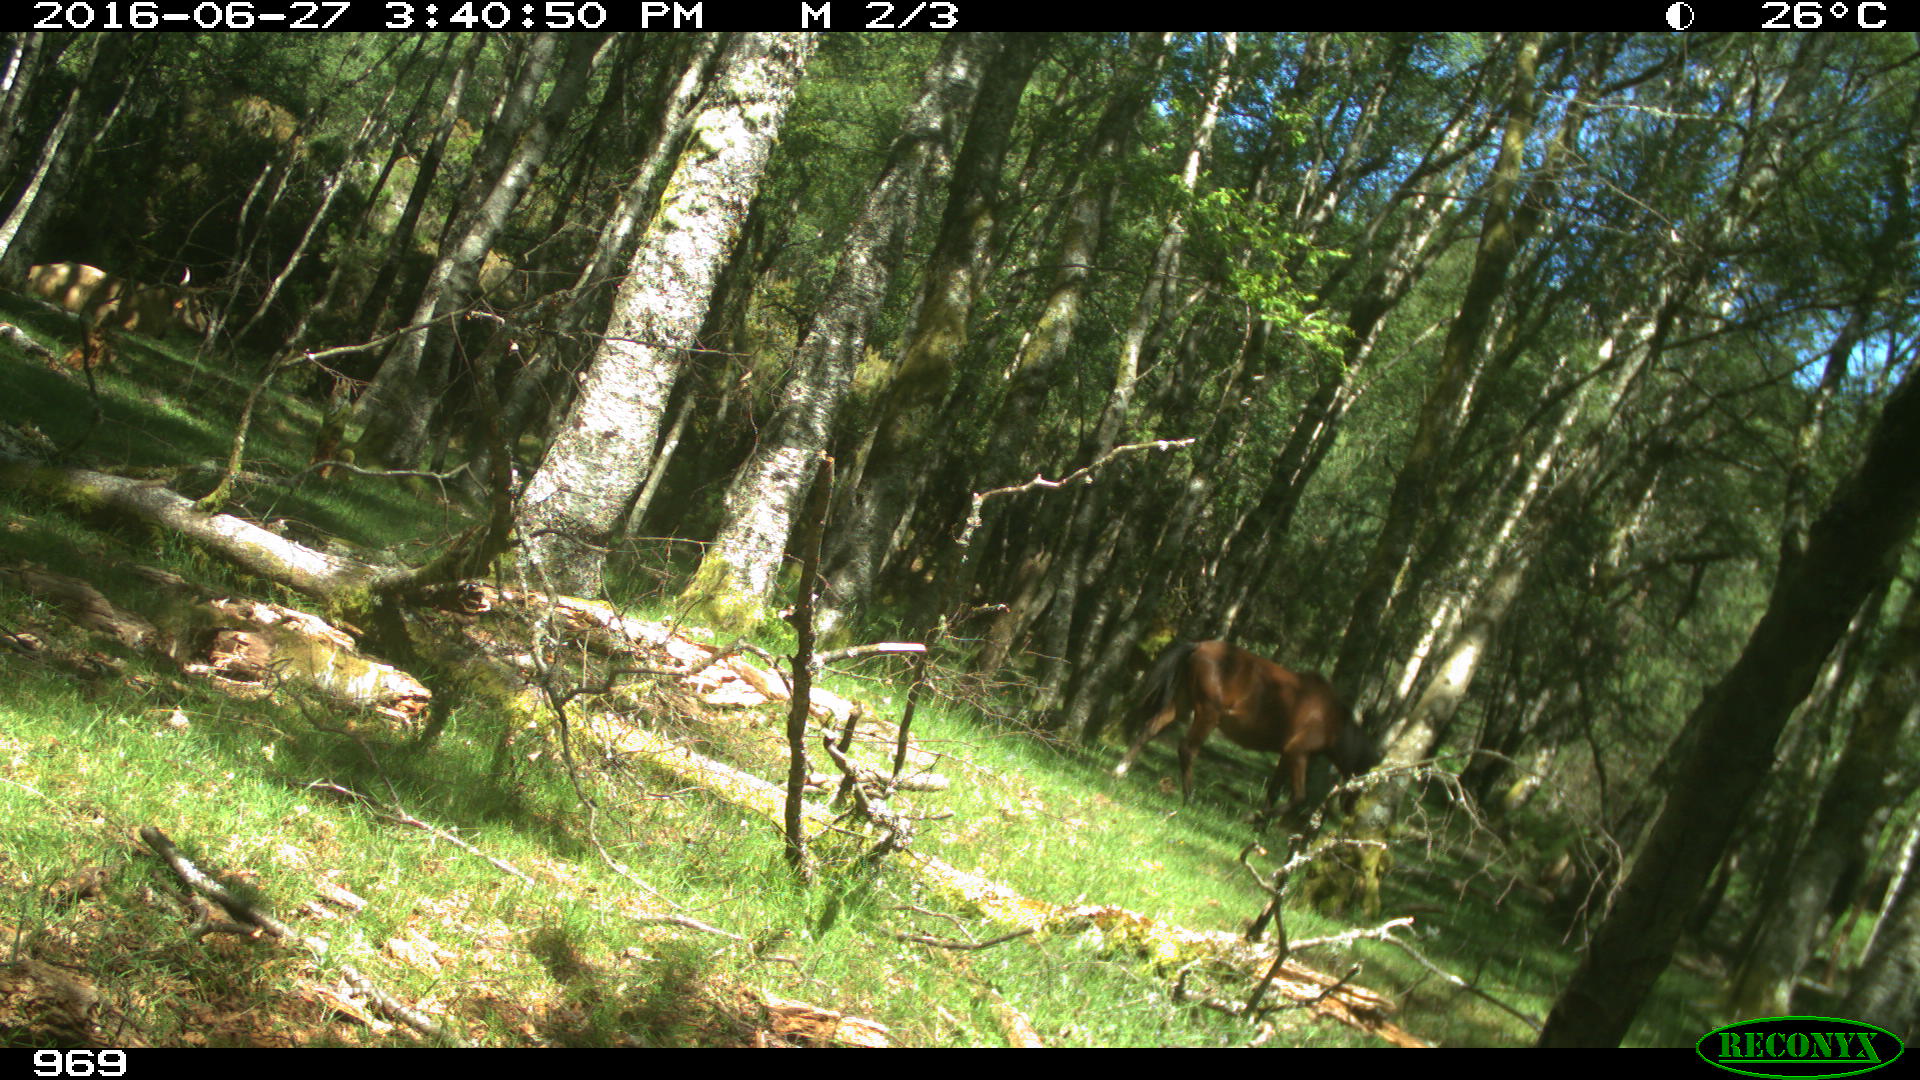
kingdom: Animalia
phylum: Chordata
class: Mammalia
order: Perissodactyla
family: Equidae
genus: Equus
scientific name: Equus caballus
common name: Horse
